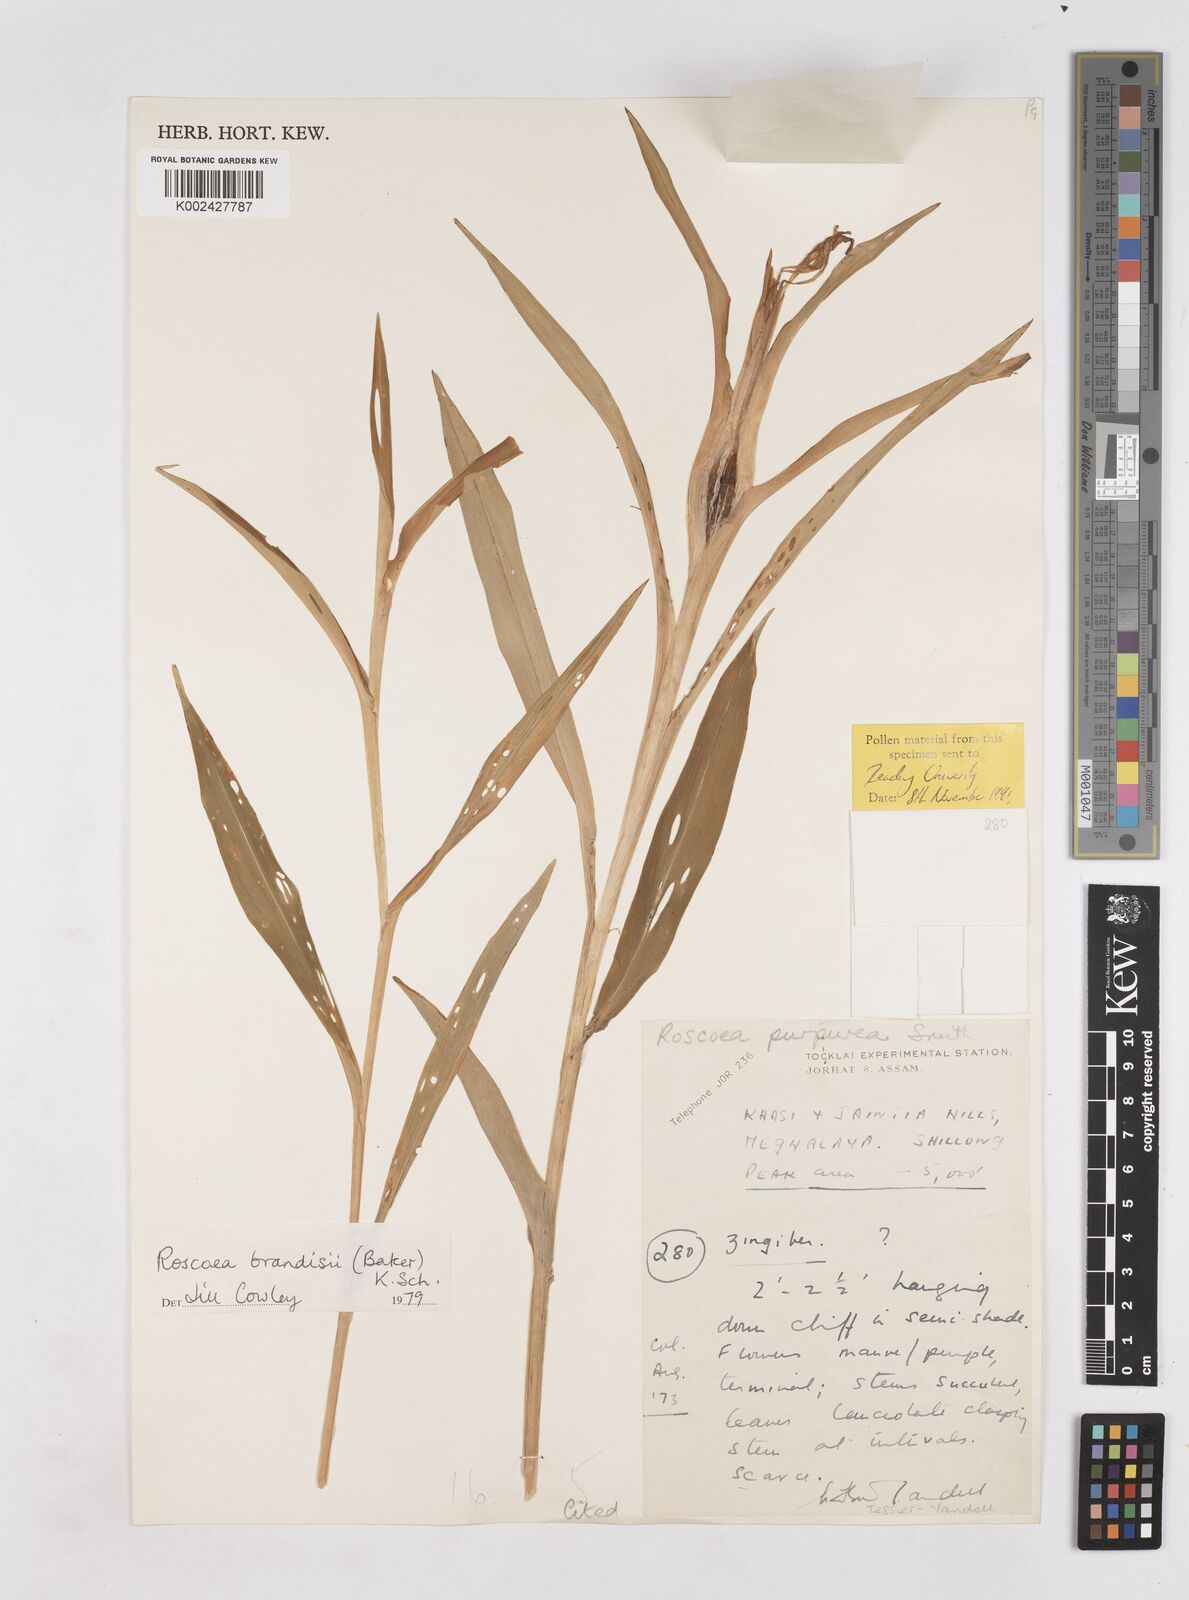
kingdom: Plantae
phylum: Tracheophyta
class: Liliopsida
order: Zingiberales
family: Zingiberaceae
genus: Roscoea
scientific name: Roscoea brandisii
